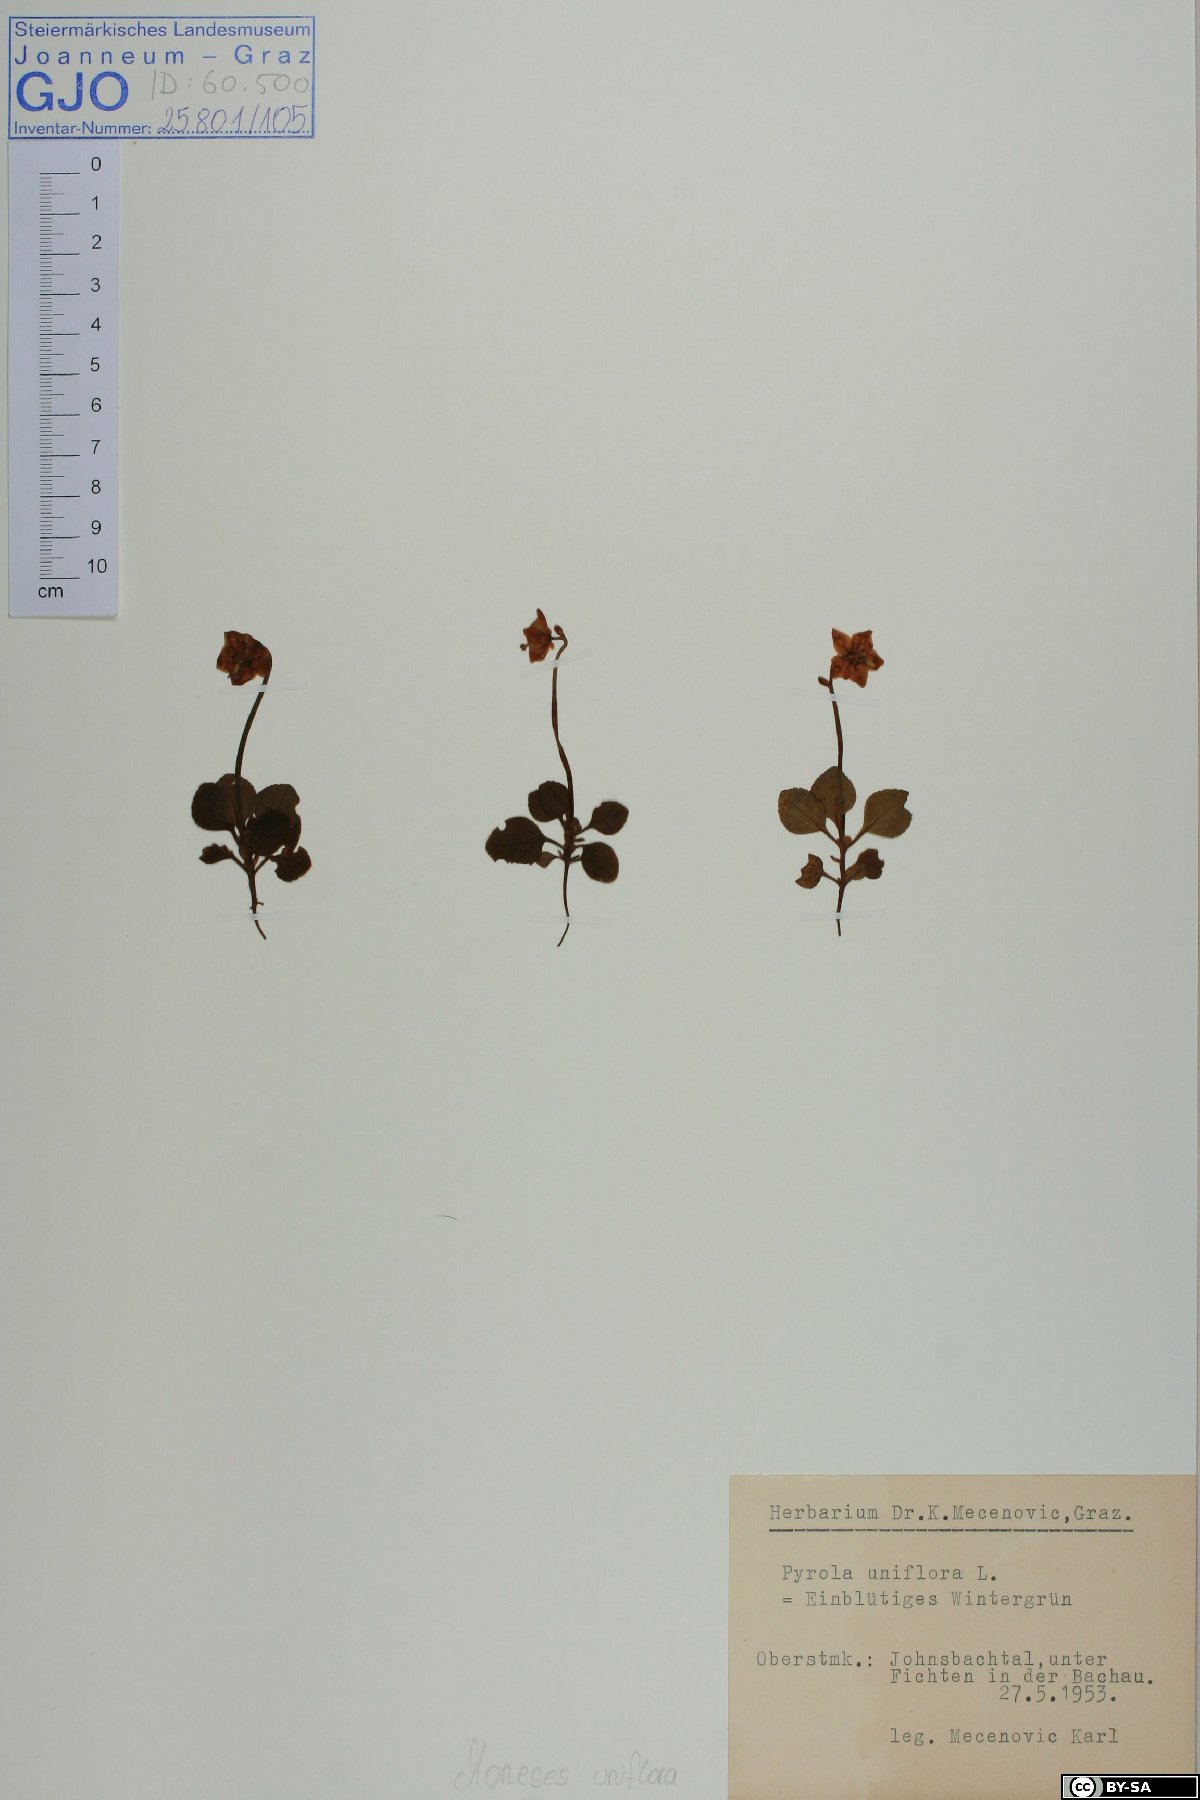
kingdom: Plantae
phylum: Tracheophyta
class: Magnoliopsida
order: Ericales
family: Ericaceae
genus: Moneses
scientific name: Moneses uniflora
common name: One-flowered wintergreen
